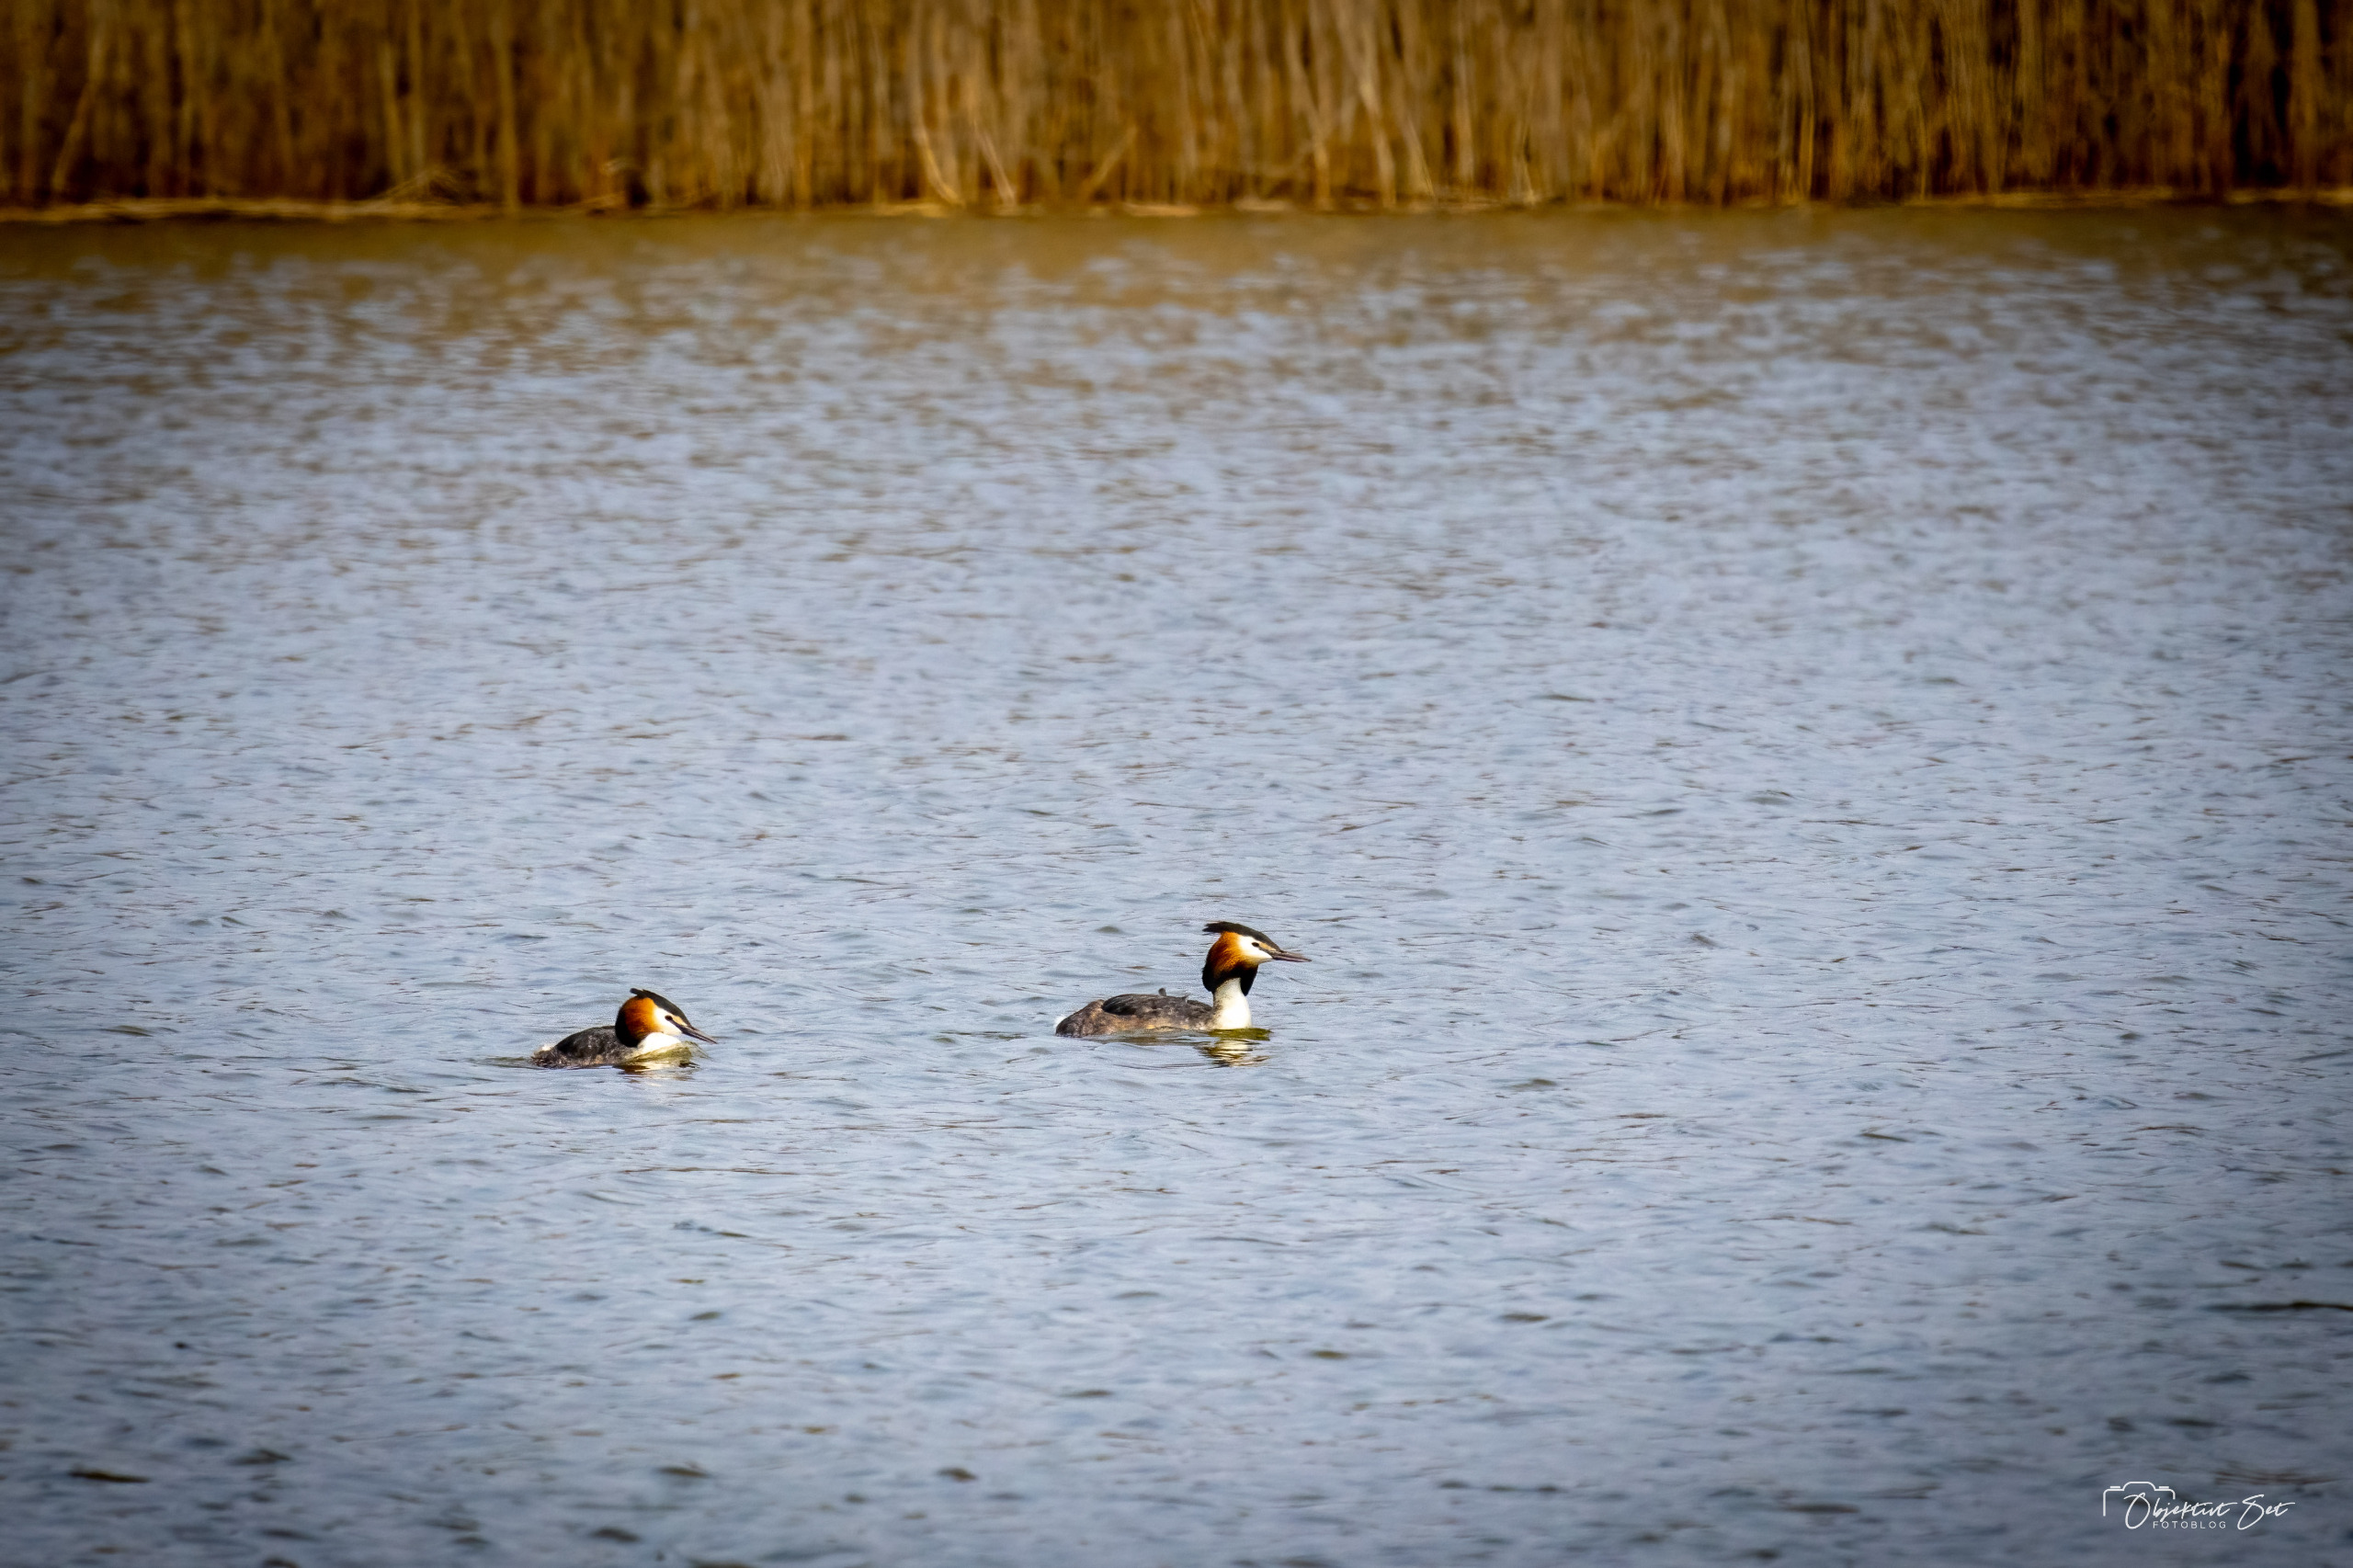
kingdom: Animalia
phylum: Chordata
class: Aves
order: Podicipediformes
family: Podicipedidae
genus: Podiceps
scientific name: Podiceps cristatus
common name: Toppet lappedykker
